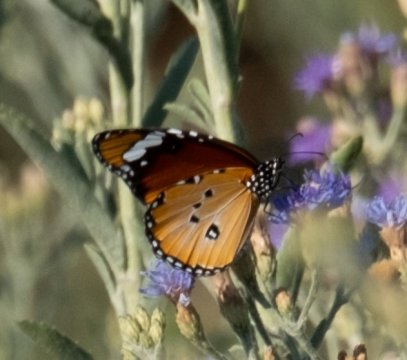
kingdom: Animalia
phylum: Arthropoda
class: Insecta
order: Lepidoptera
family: Nymphalidae
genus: Danaus
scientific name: Danaus chrysippus
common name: African Monarch
